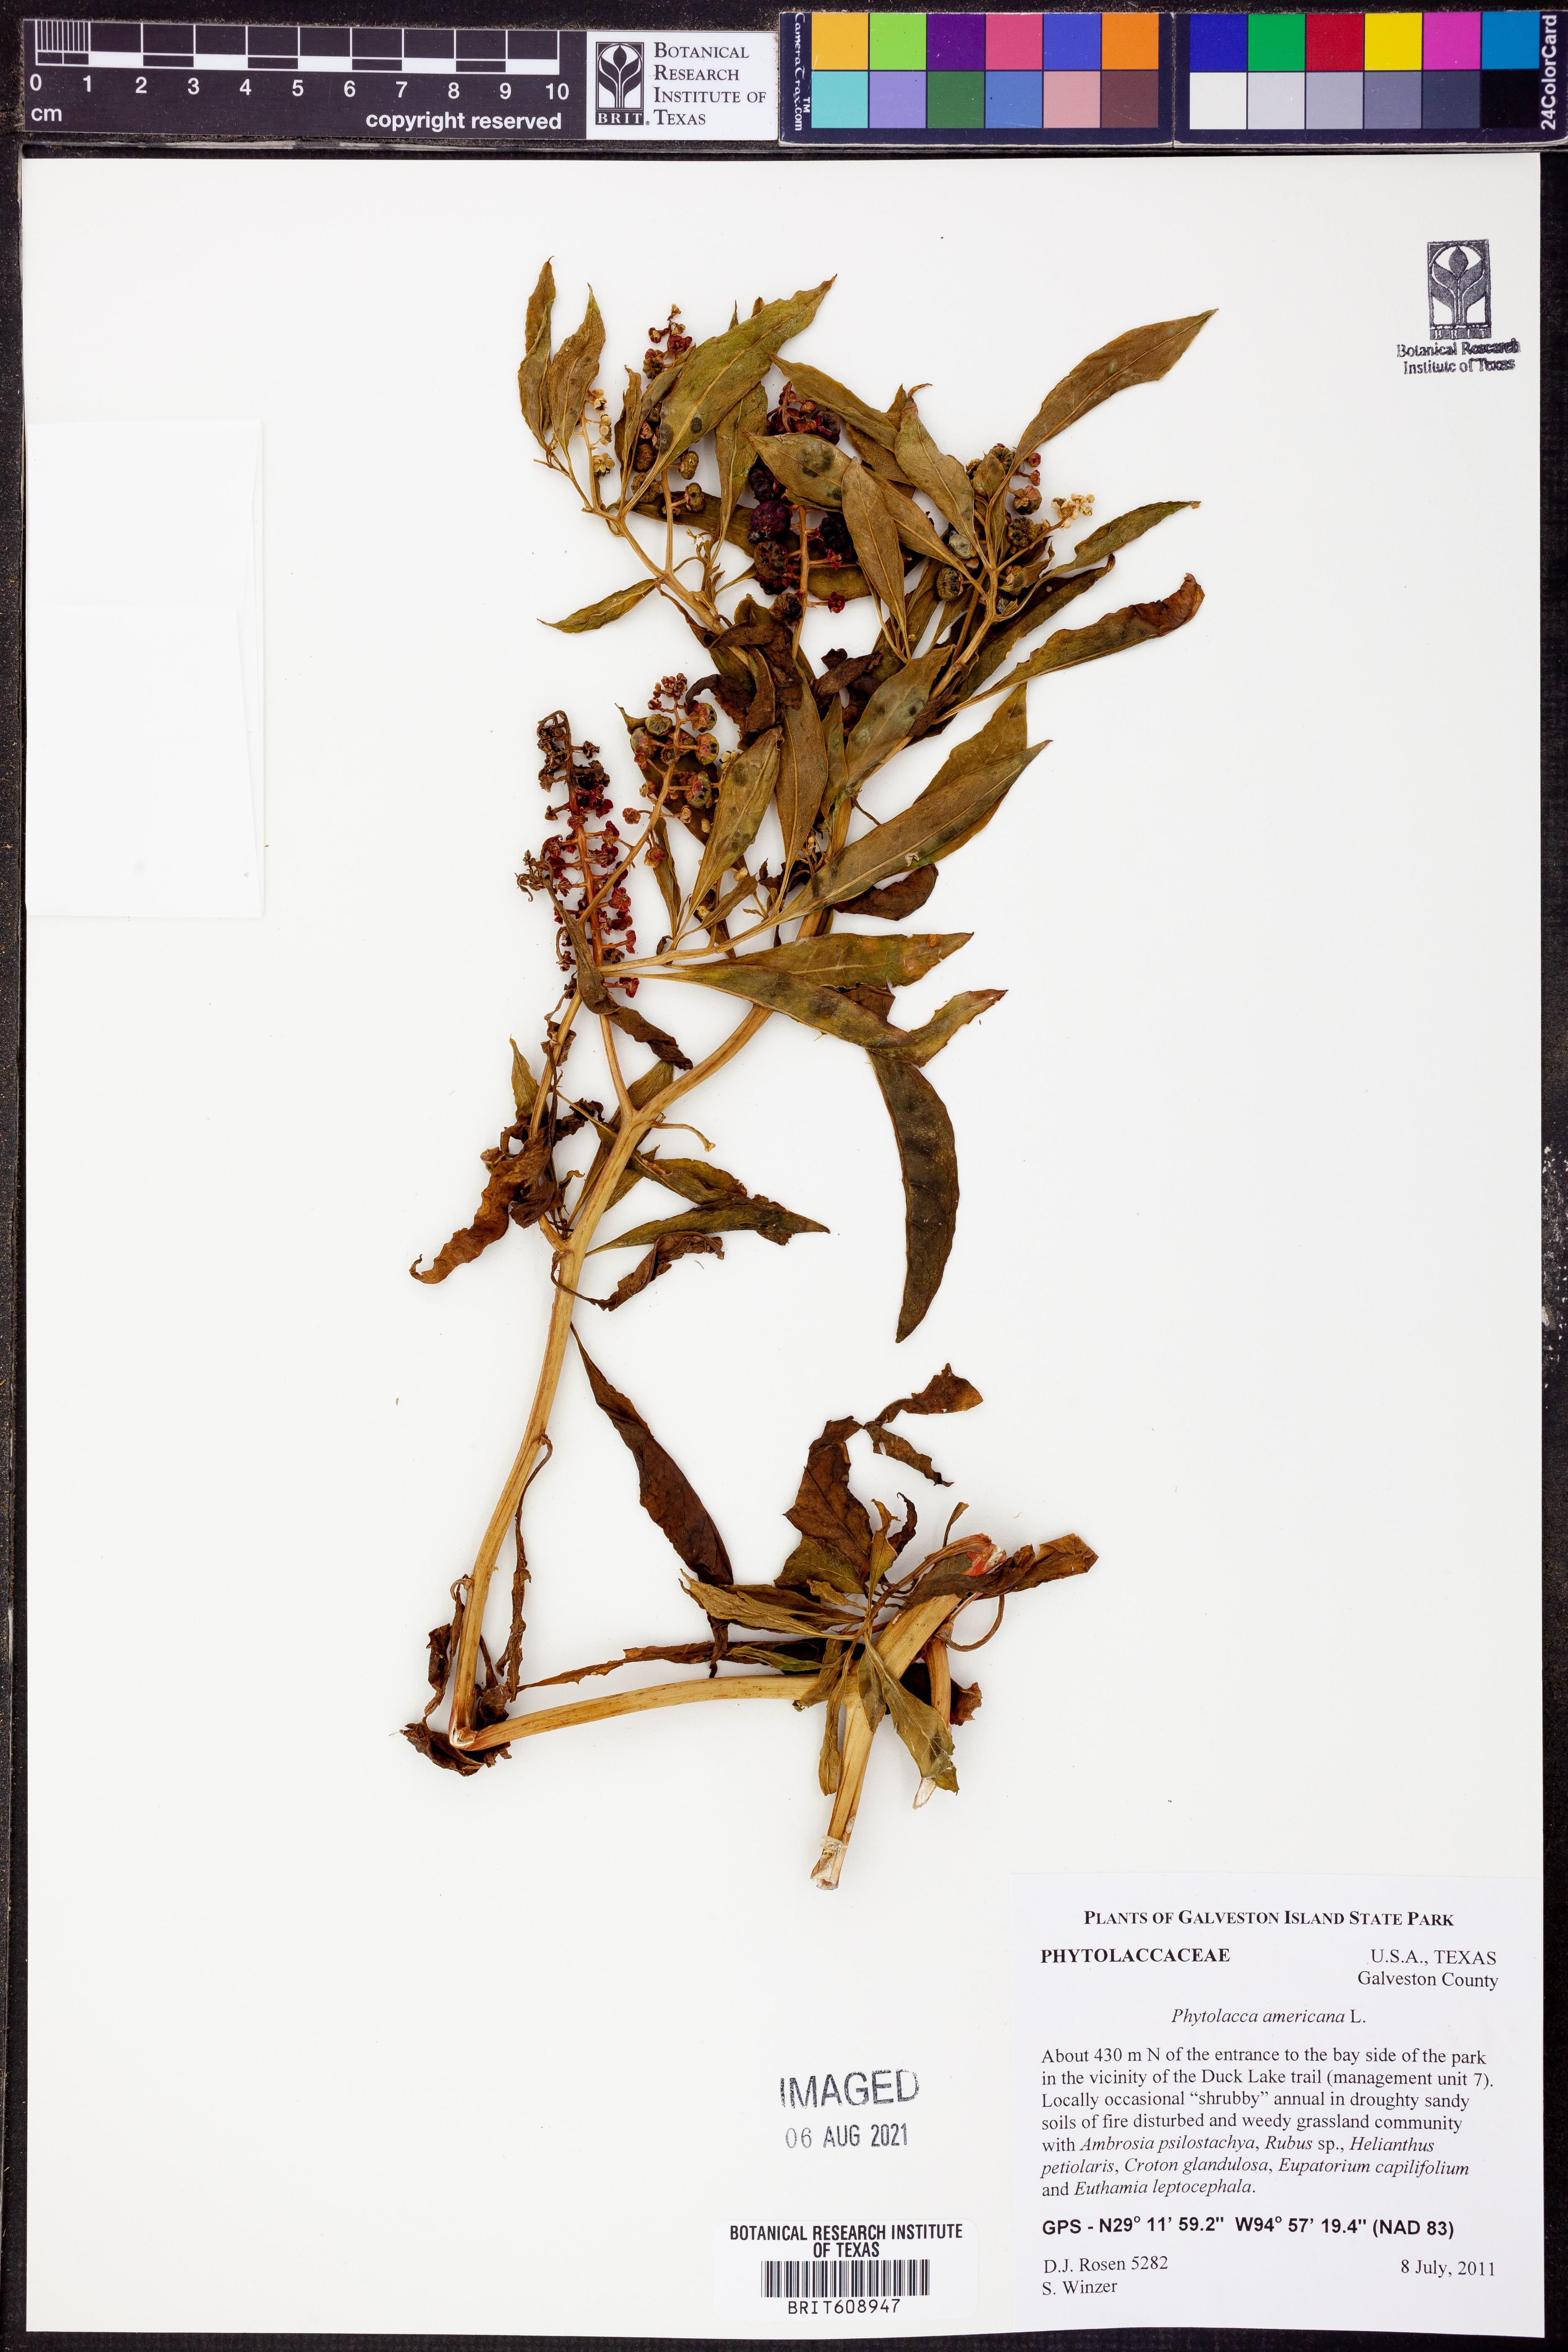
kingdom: Plantae
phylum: Tracheophyta
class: Magnoliopsida
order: Caryophyllales
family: Phytolaccaceae
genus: Phytolacca
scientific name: Phytolacca americana
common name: American pokeweed
